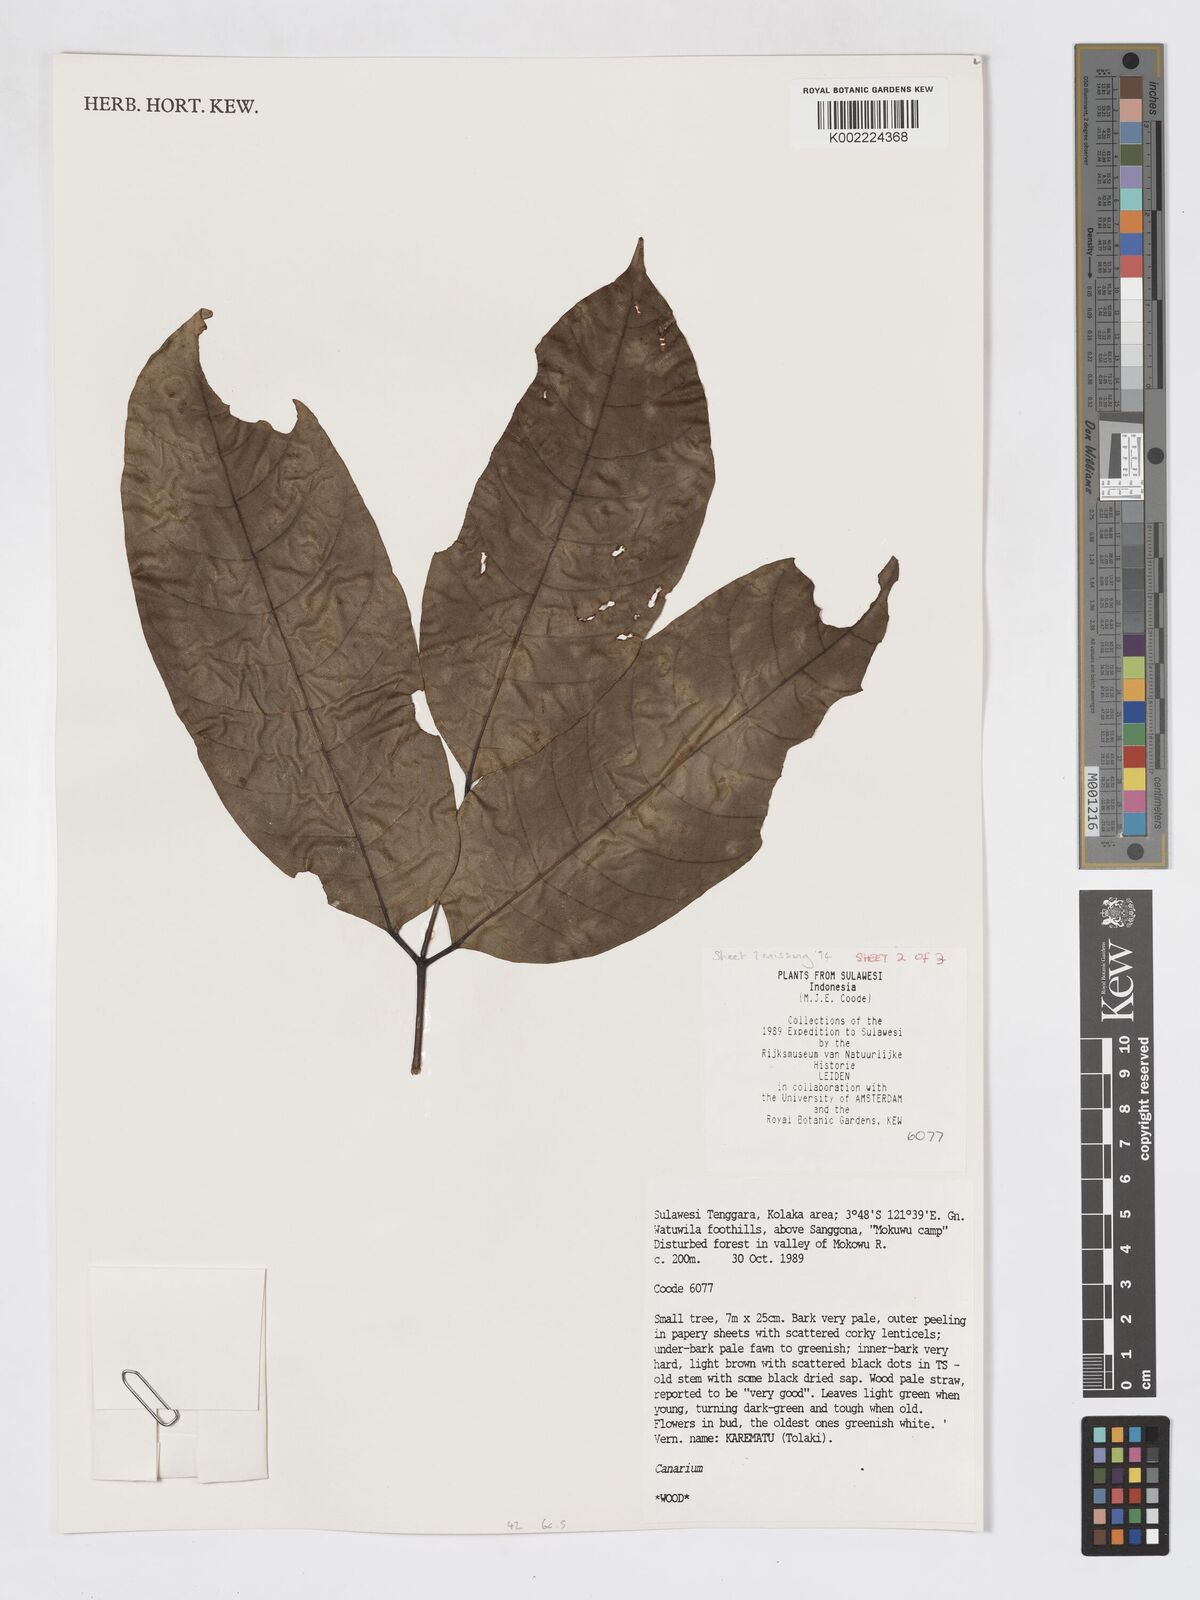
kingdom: Plantae
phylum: Tracheophyta
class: Magnoliopsida
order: Sapindales
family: Burseraceae
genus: Canarium
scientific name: Canarium
